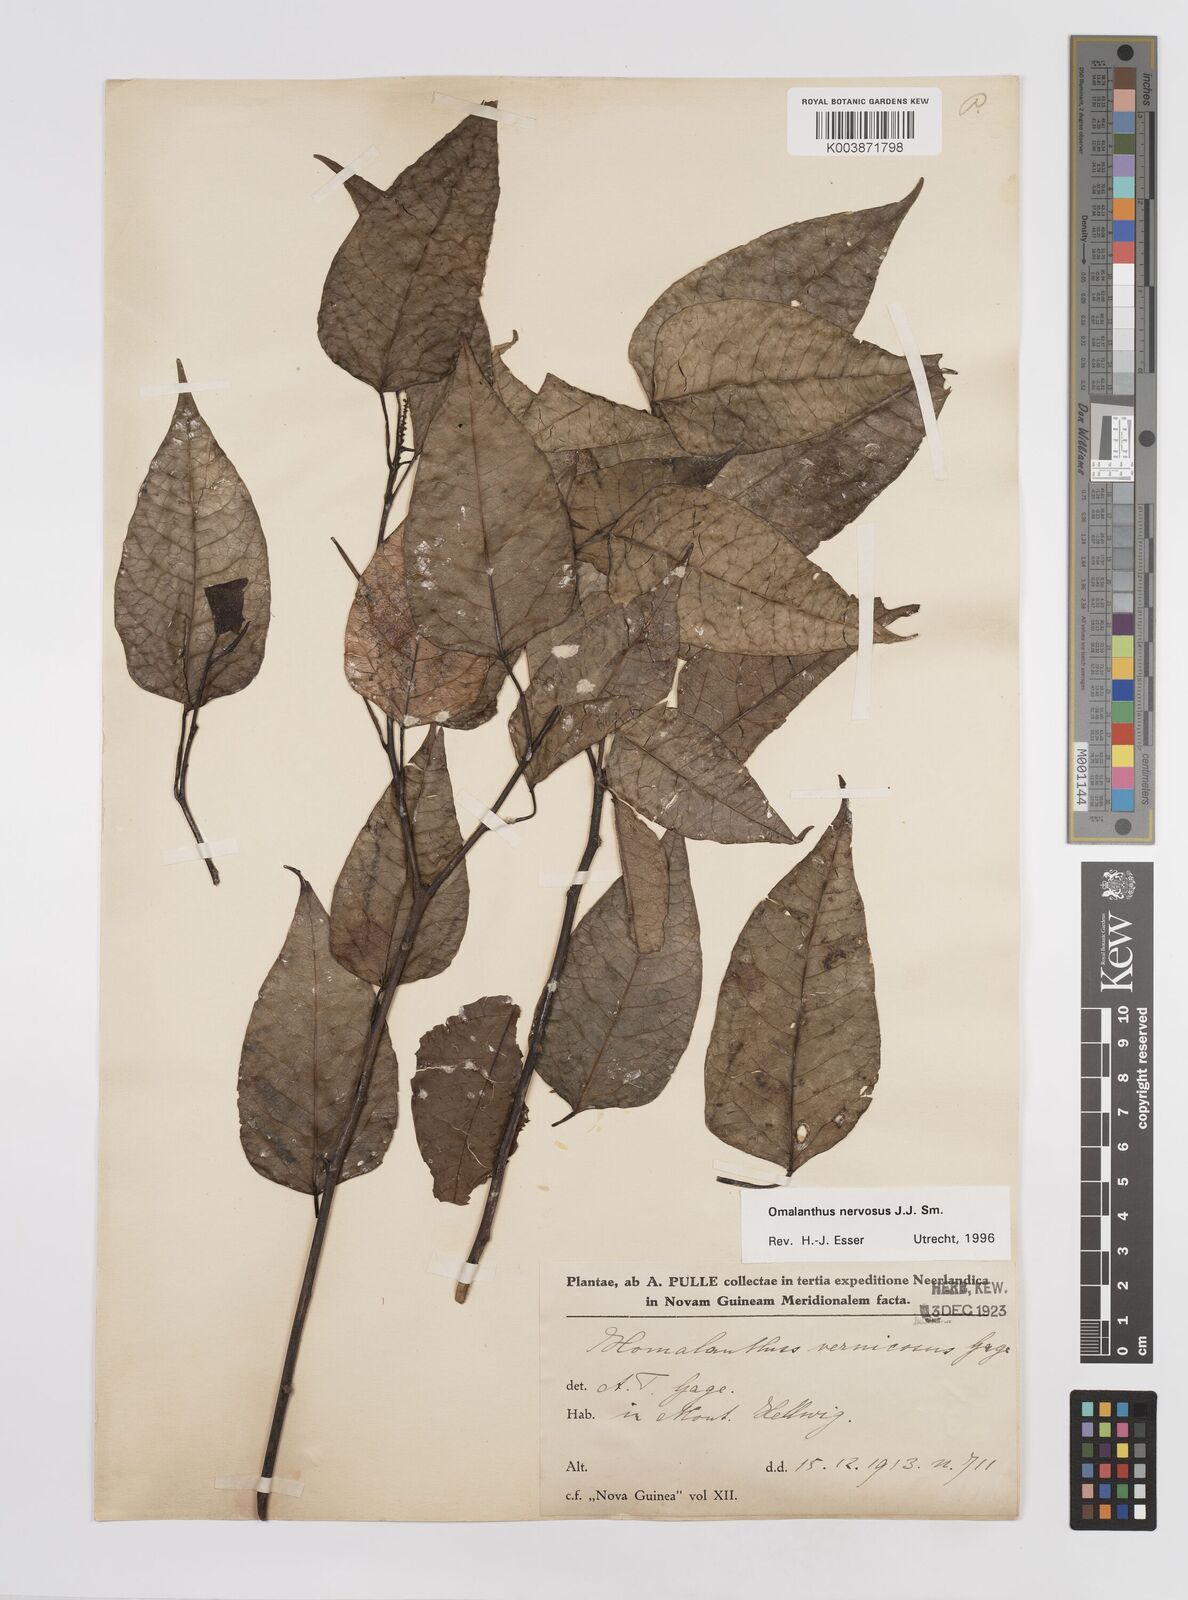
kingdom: Plantae
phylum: Tracheophyta
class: Magnoliopsida
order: Malpighiales
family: Euphorbiaceae
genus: Homalanthus
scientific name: Homalanthus nervosus
